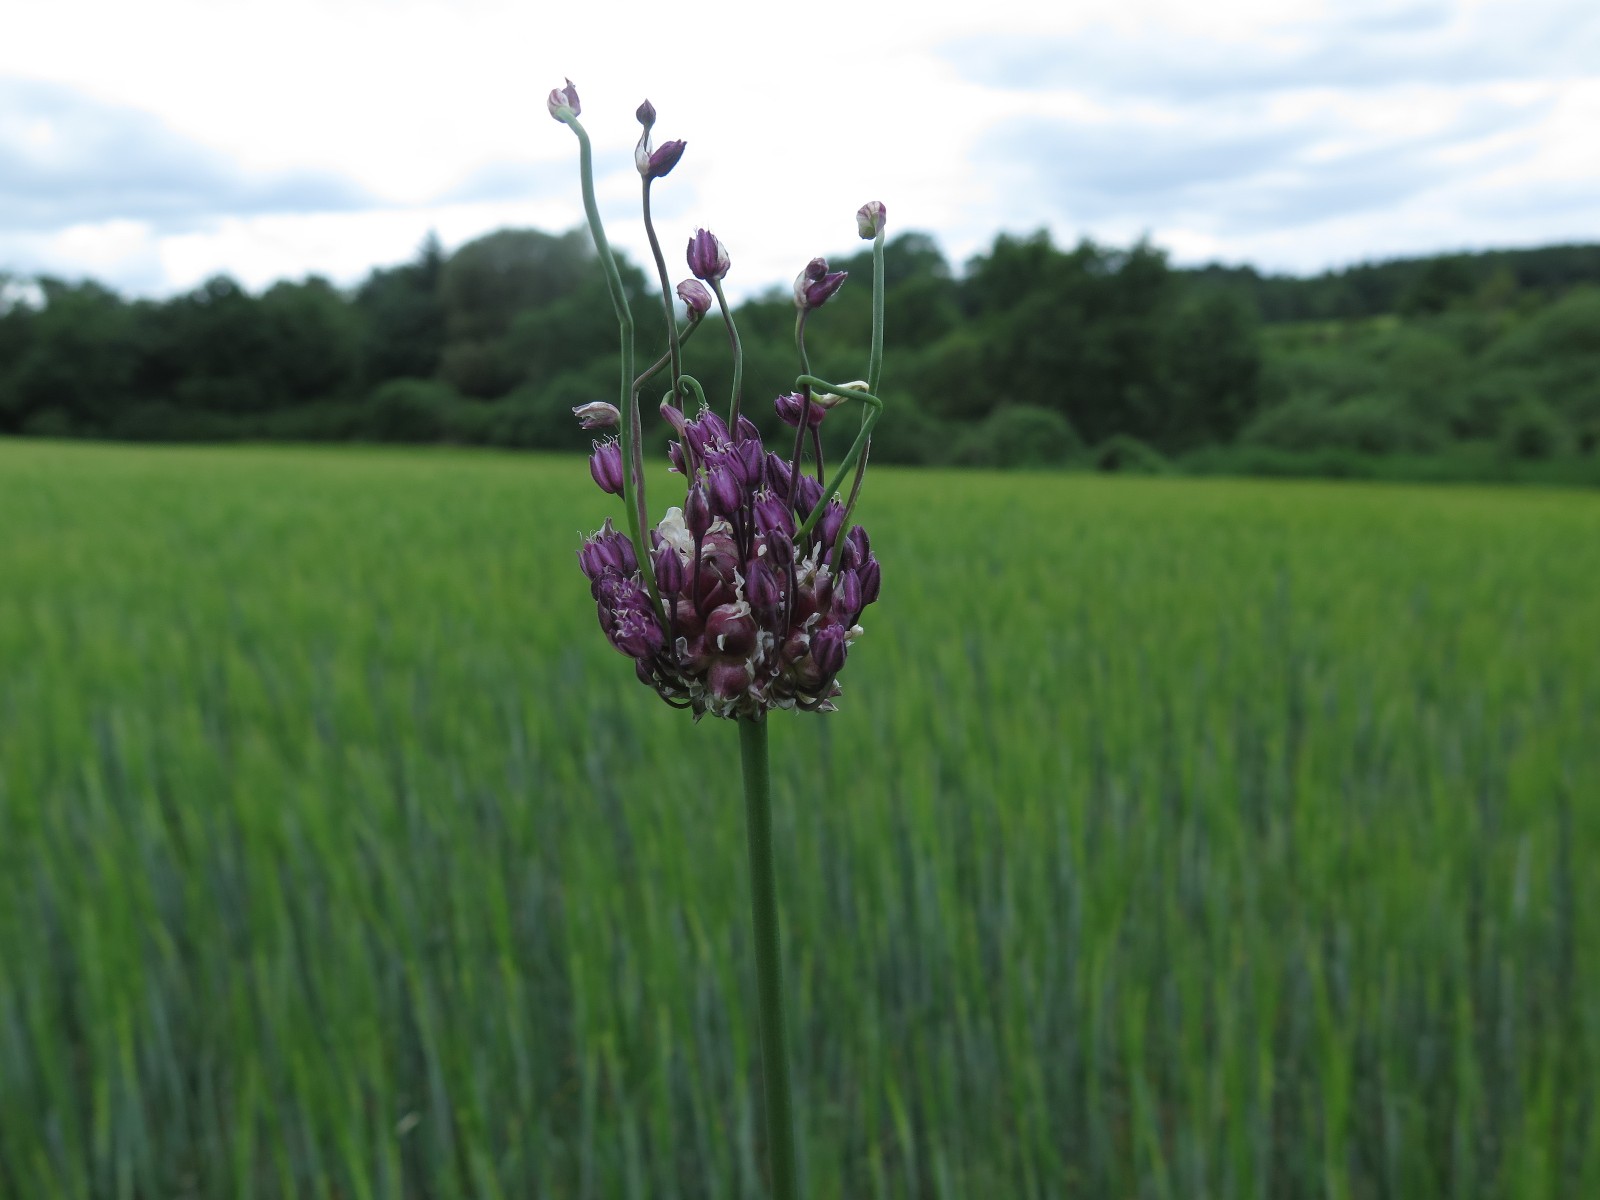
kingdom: Fungi
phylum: Basidiomycota
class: Pucciniomycetes
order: Pucciniales
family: Pucciniaceae
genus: Puccinia
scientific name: Puccinia porri
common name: Allium rust
